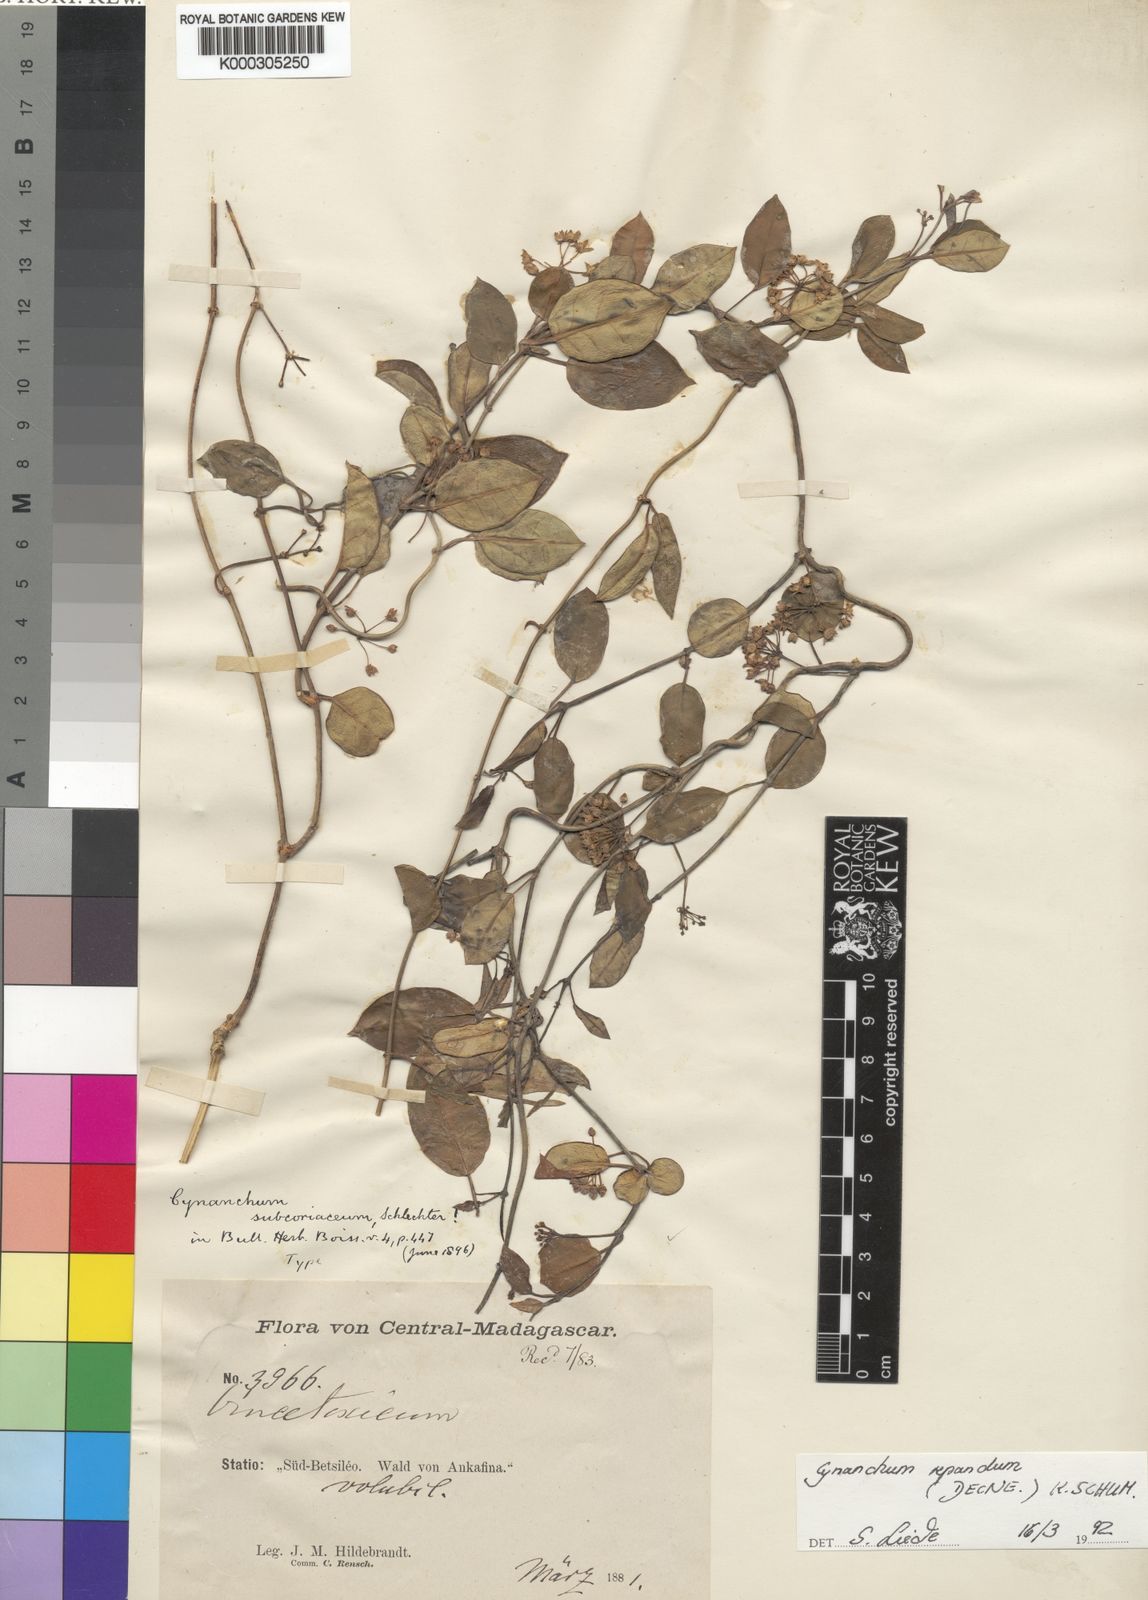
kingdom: Plantae
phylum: Tracheophyta
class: Magnoliopsida
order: Gentianales
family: Apocynaceae
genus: Cynanchum
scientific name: Cynanchum repandum
